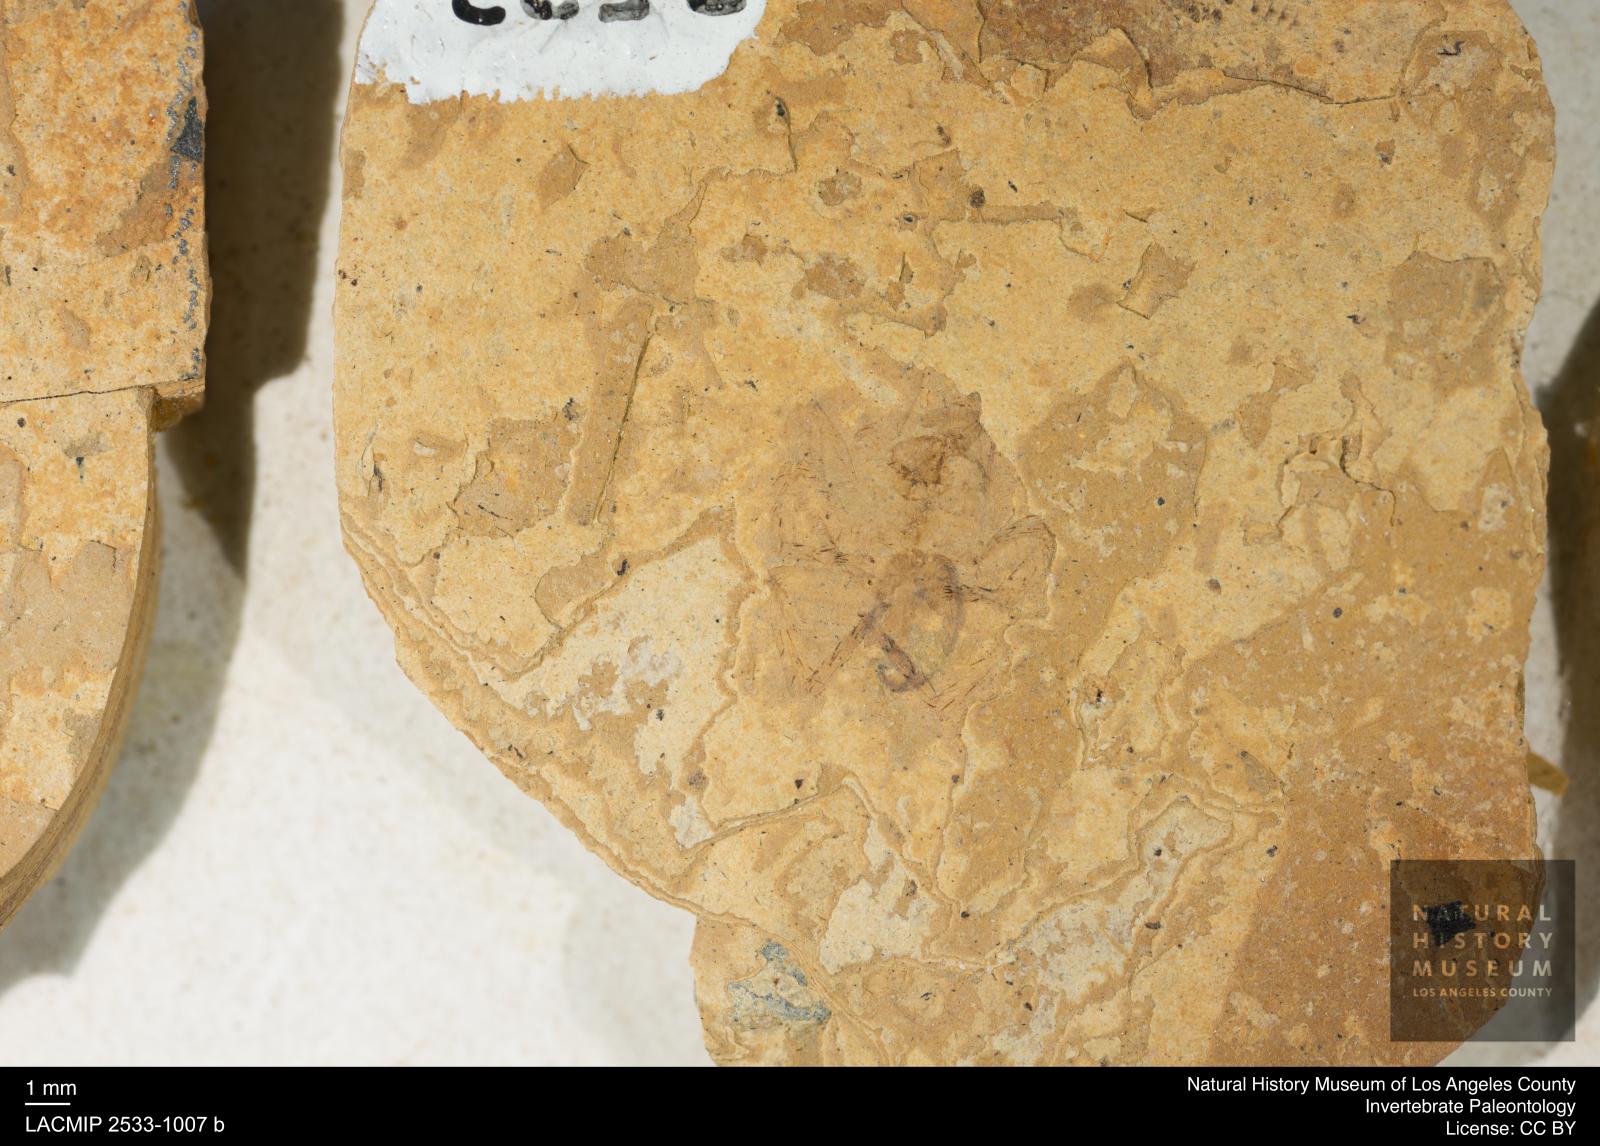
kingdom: Animalia
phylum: Arthropoda
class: Arachnida
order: Araneae
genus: Elvina
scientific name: Elvina Argyroneta antiqua
